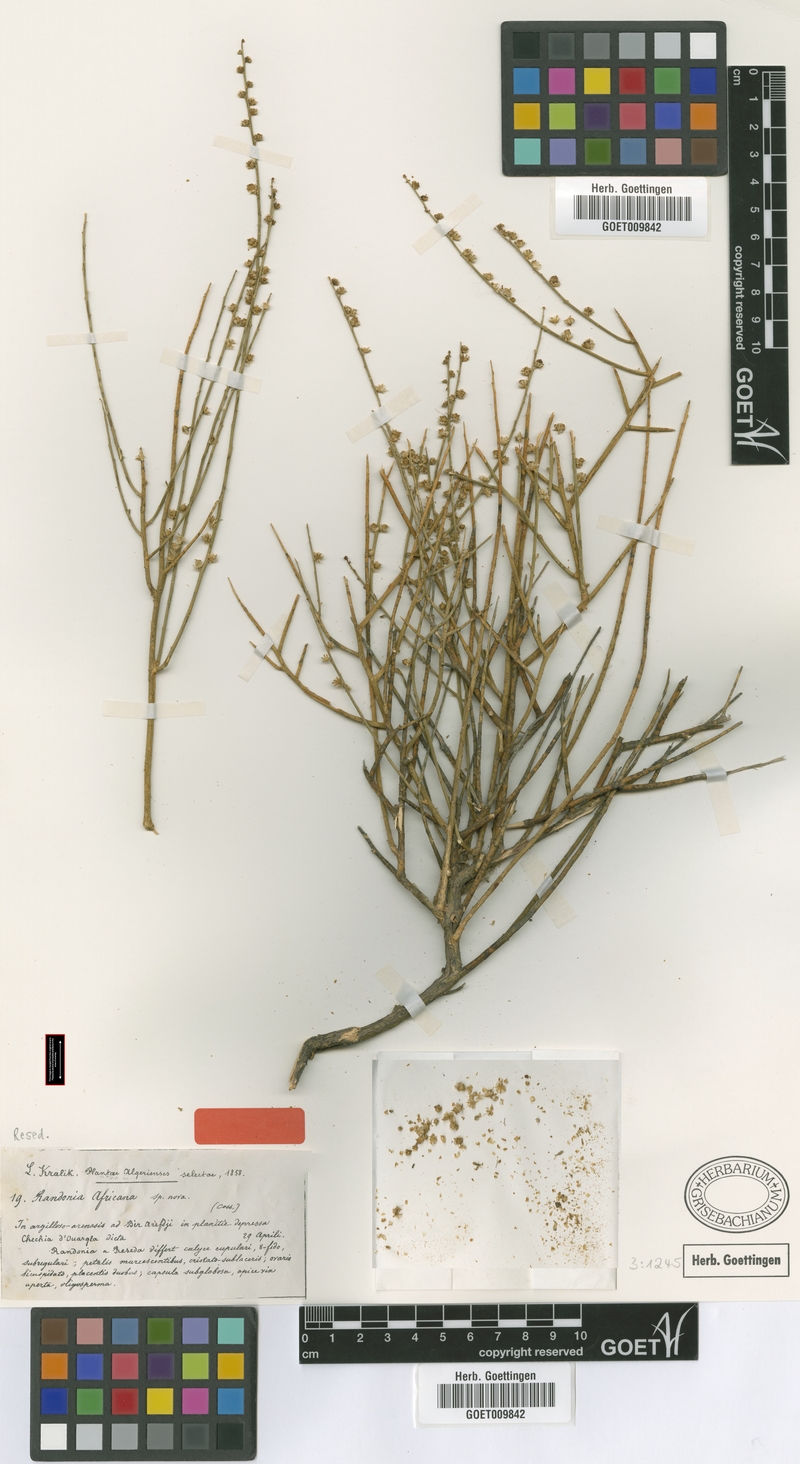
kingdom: Plantae
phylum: Tracheophyta
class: Magnoliopsida
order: Brassicales
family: Resedaceae
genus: Randonia
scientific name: Randonia africana
